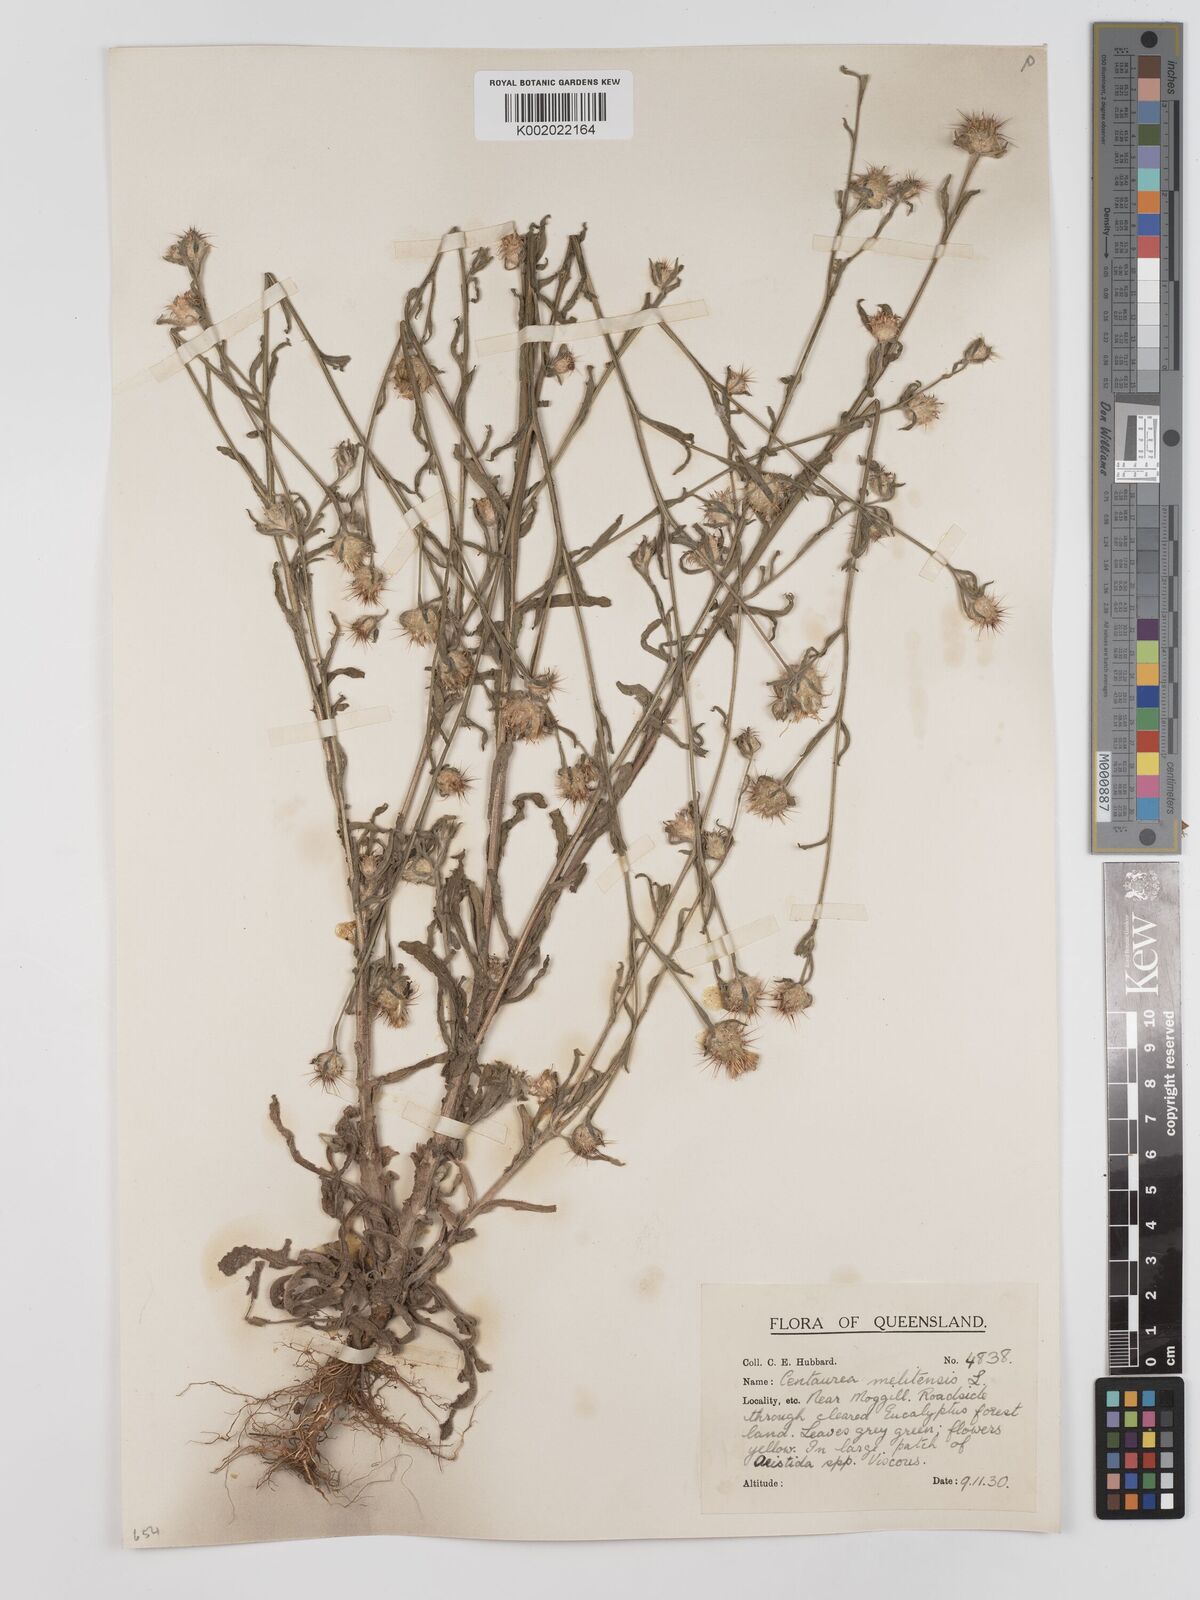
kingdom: Plantae
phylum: Tracheophyta
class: Magnoliopsida
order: Asterales
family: Asteraceae
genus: Centaurea
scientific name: Centaurea melitensis
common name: Maltese star-thistle
